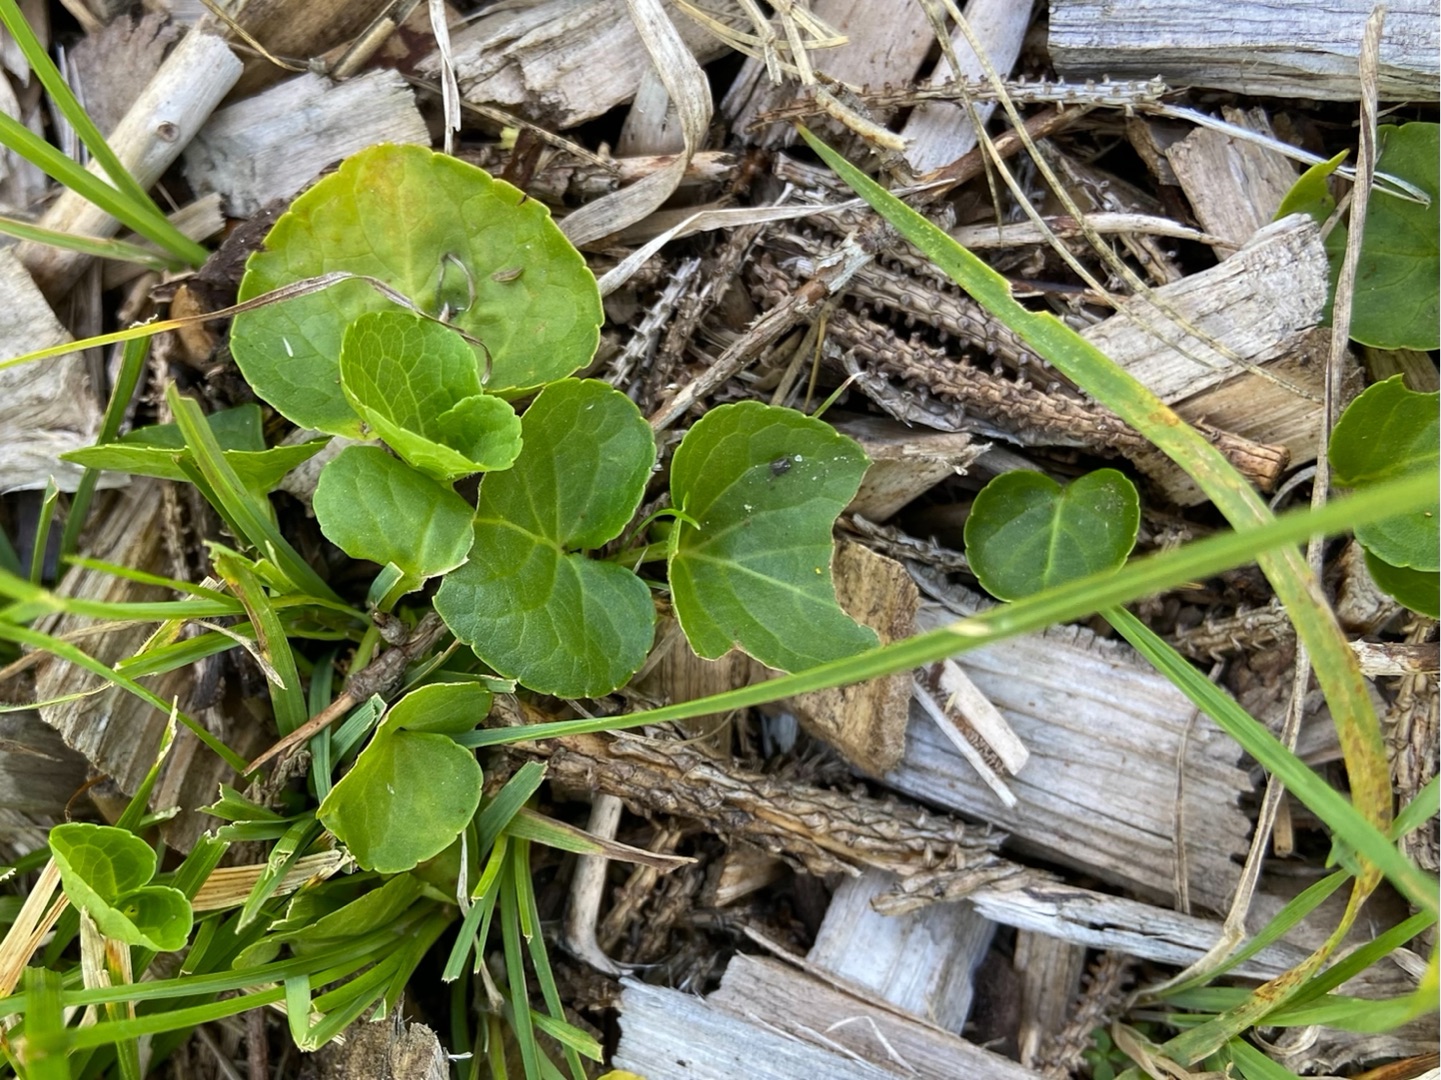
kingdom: Plantae
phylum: Tracheophyta
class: Magnoliopsida
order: Malpighiales
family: Violaceae
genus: Viola
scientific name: Viola palustris
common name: Eng-viol
